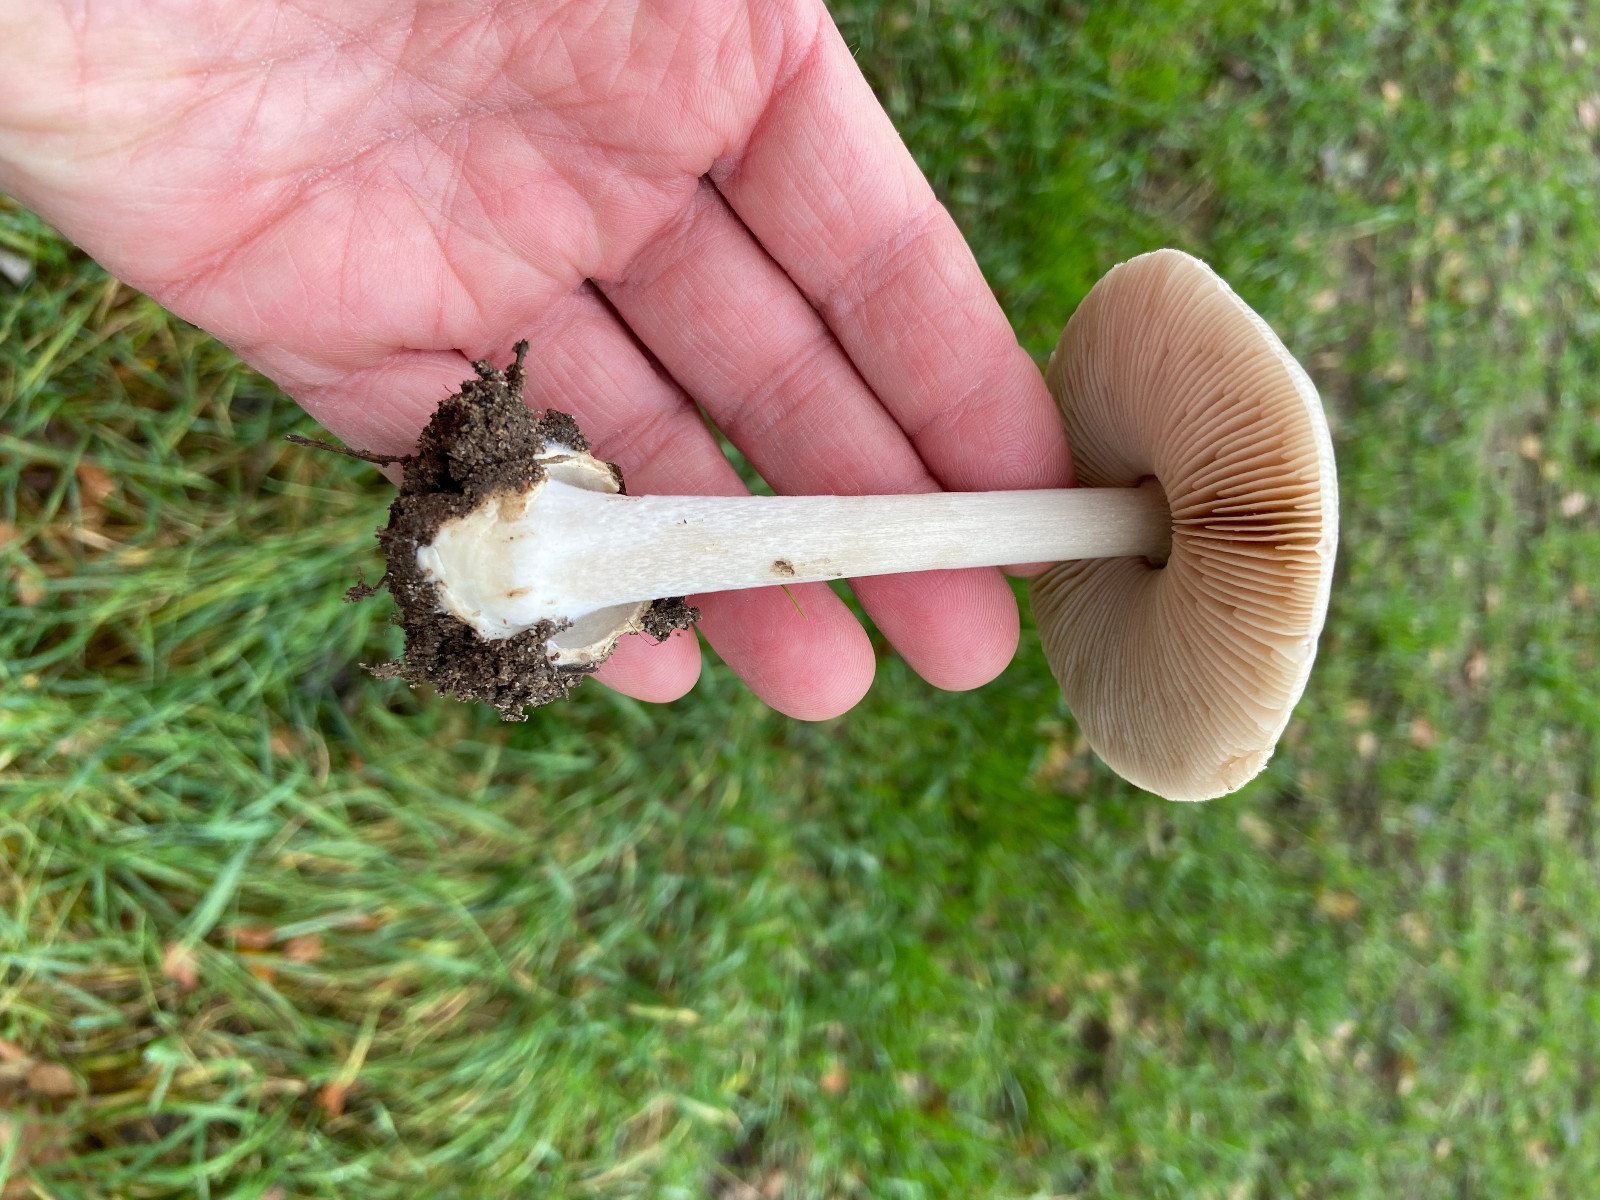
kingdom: Fungi
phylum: Basidiomycota
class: Agaricomycetes
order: Agaricales
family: Pluteaceae
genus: Volvopluteus
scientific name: Volvopluteus gloiocephalus
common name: høj posesvamp
